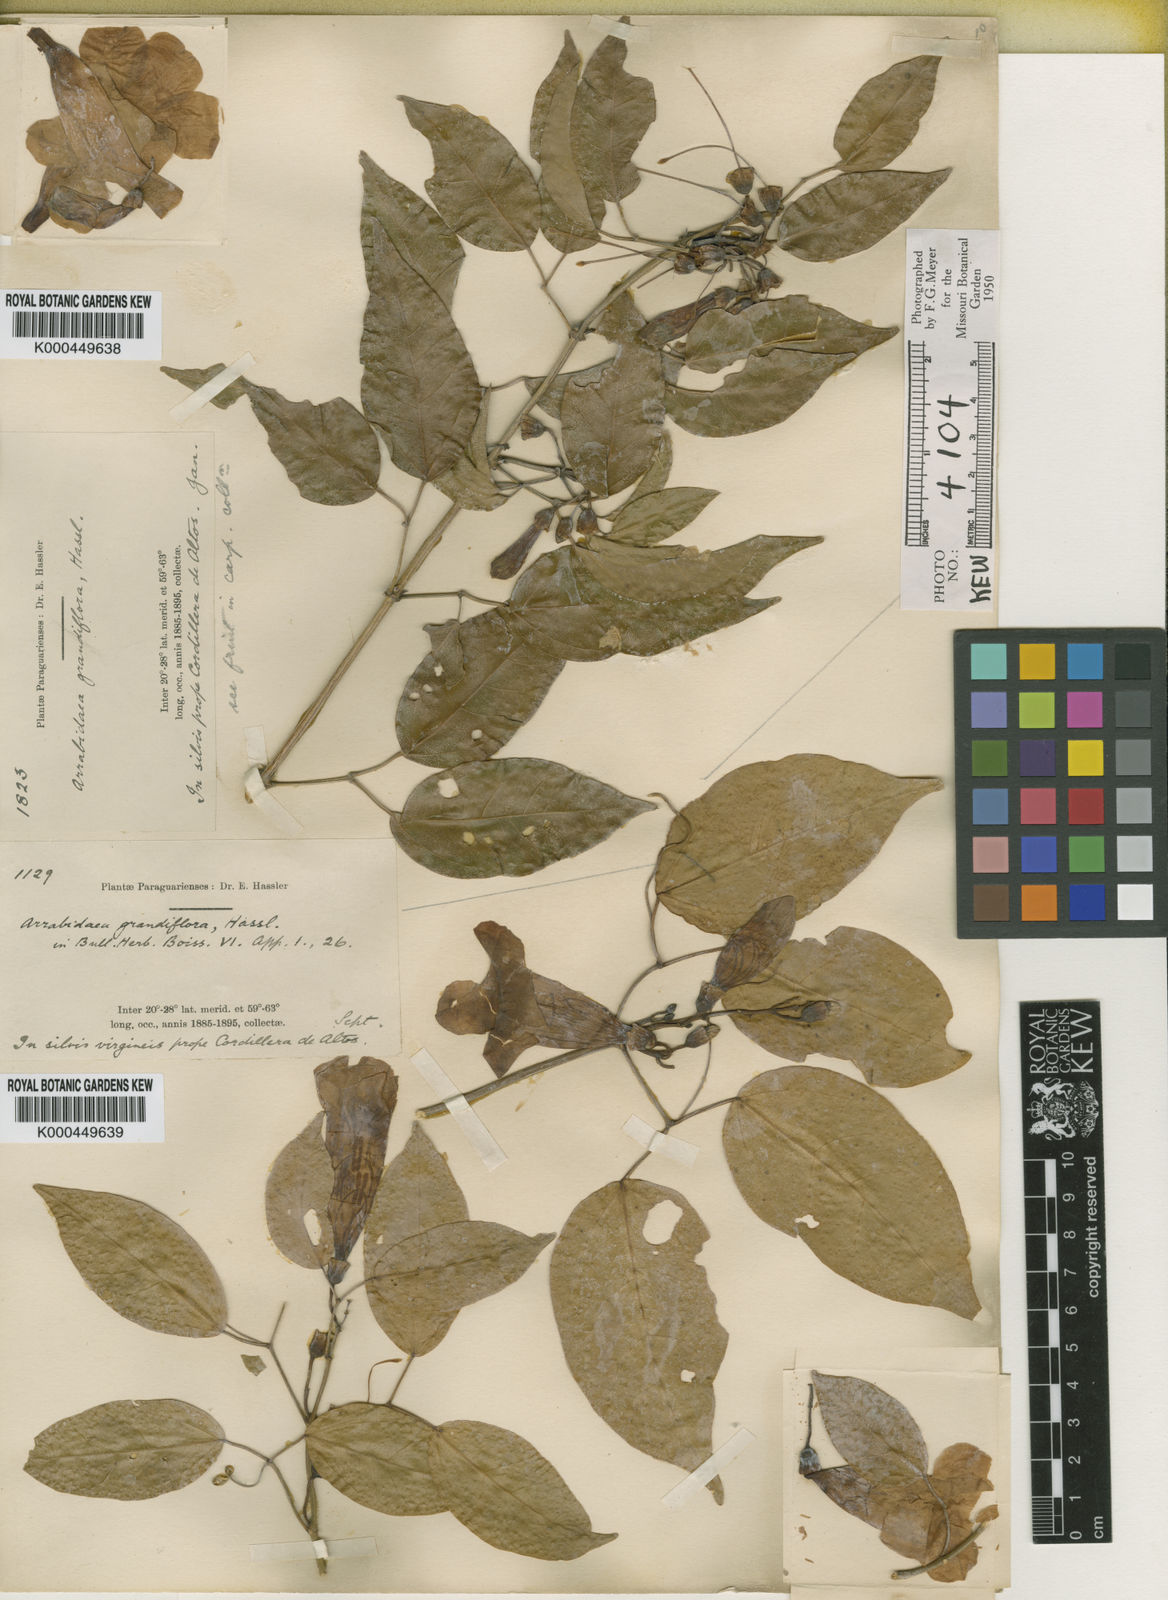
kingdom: Plantae
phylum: Tracheophyta
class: Magnoliopsida
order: Lamiales
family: Bignoniaceae
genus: Mansoa
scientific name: Mansoa difficilis
